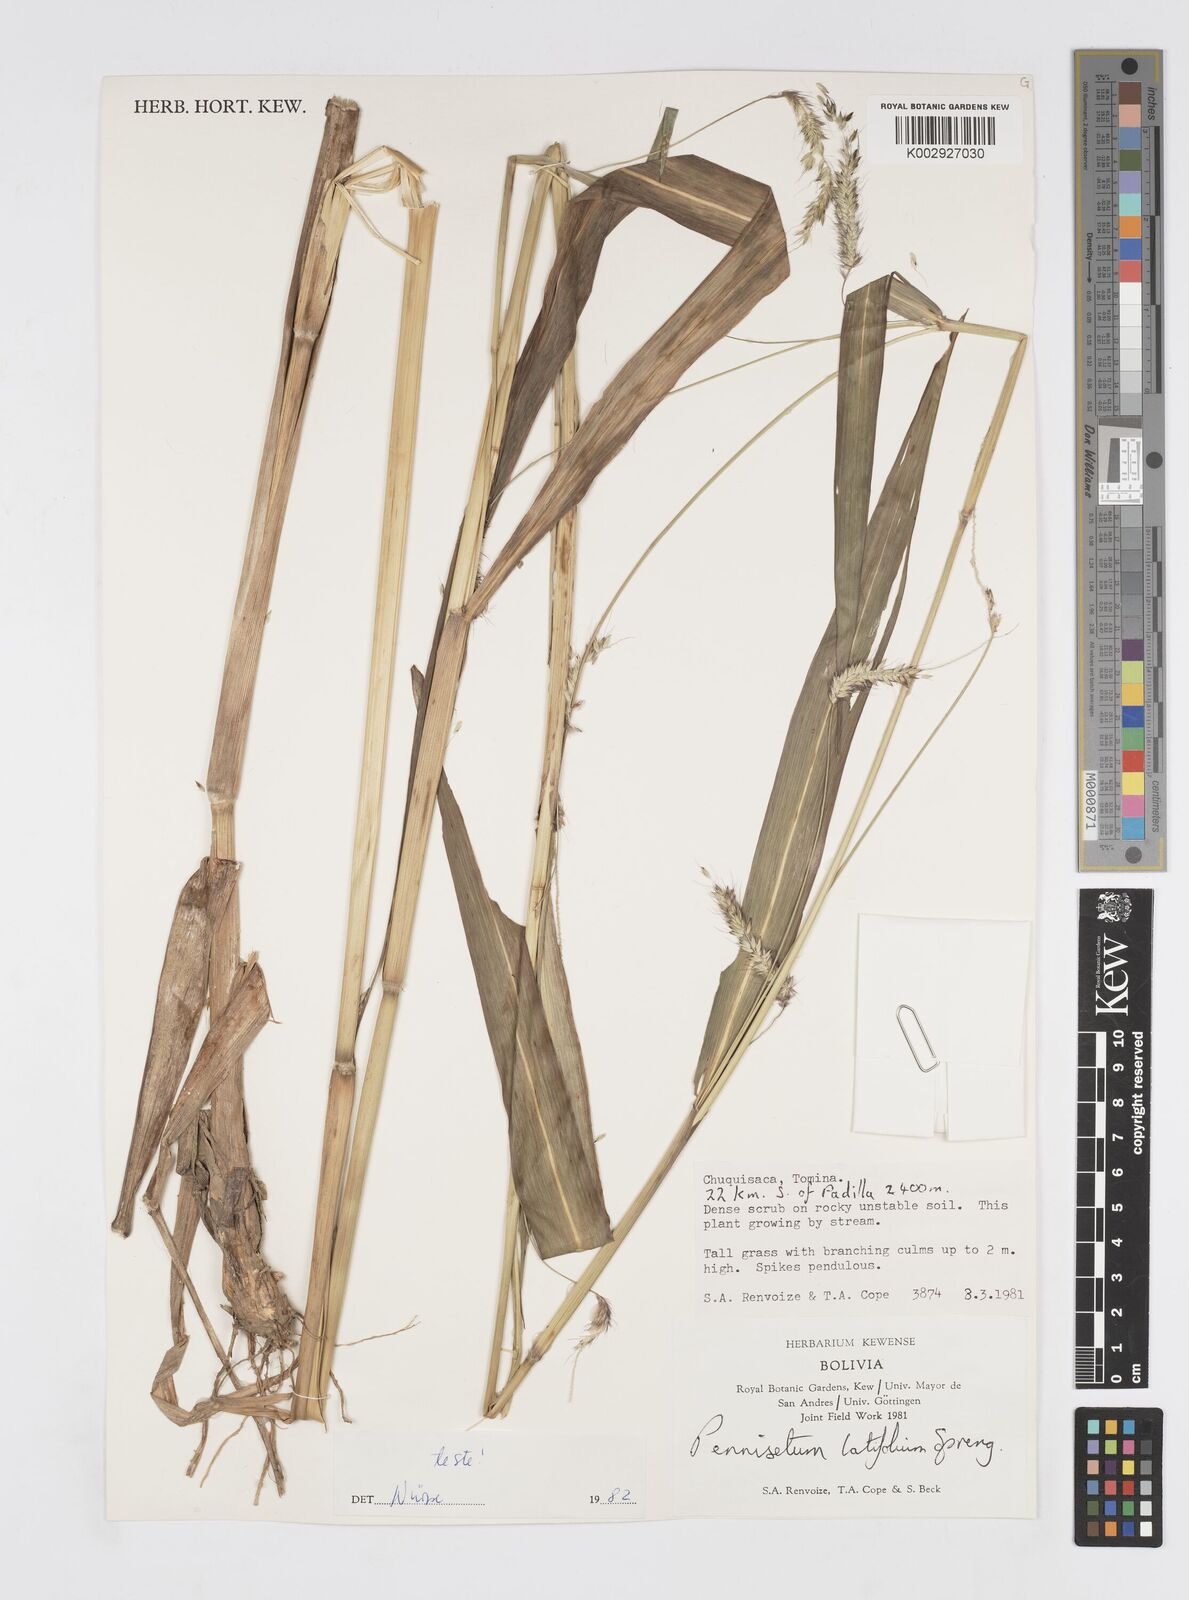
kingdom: Plantae
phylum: Tracheophyta
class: Liliopsida
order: Poales
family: Poaceae
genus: Cenchrus
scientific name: Cenchrus latifolius
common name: Sandbur
